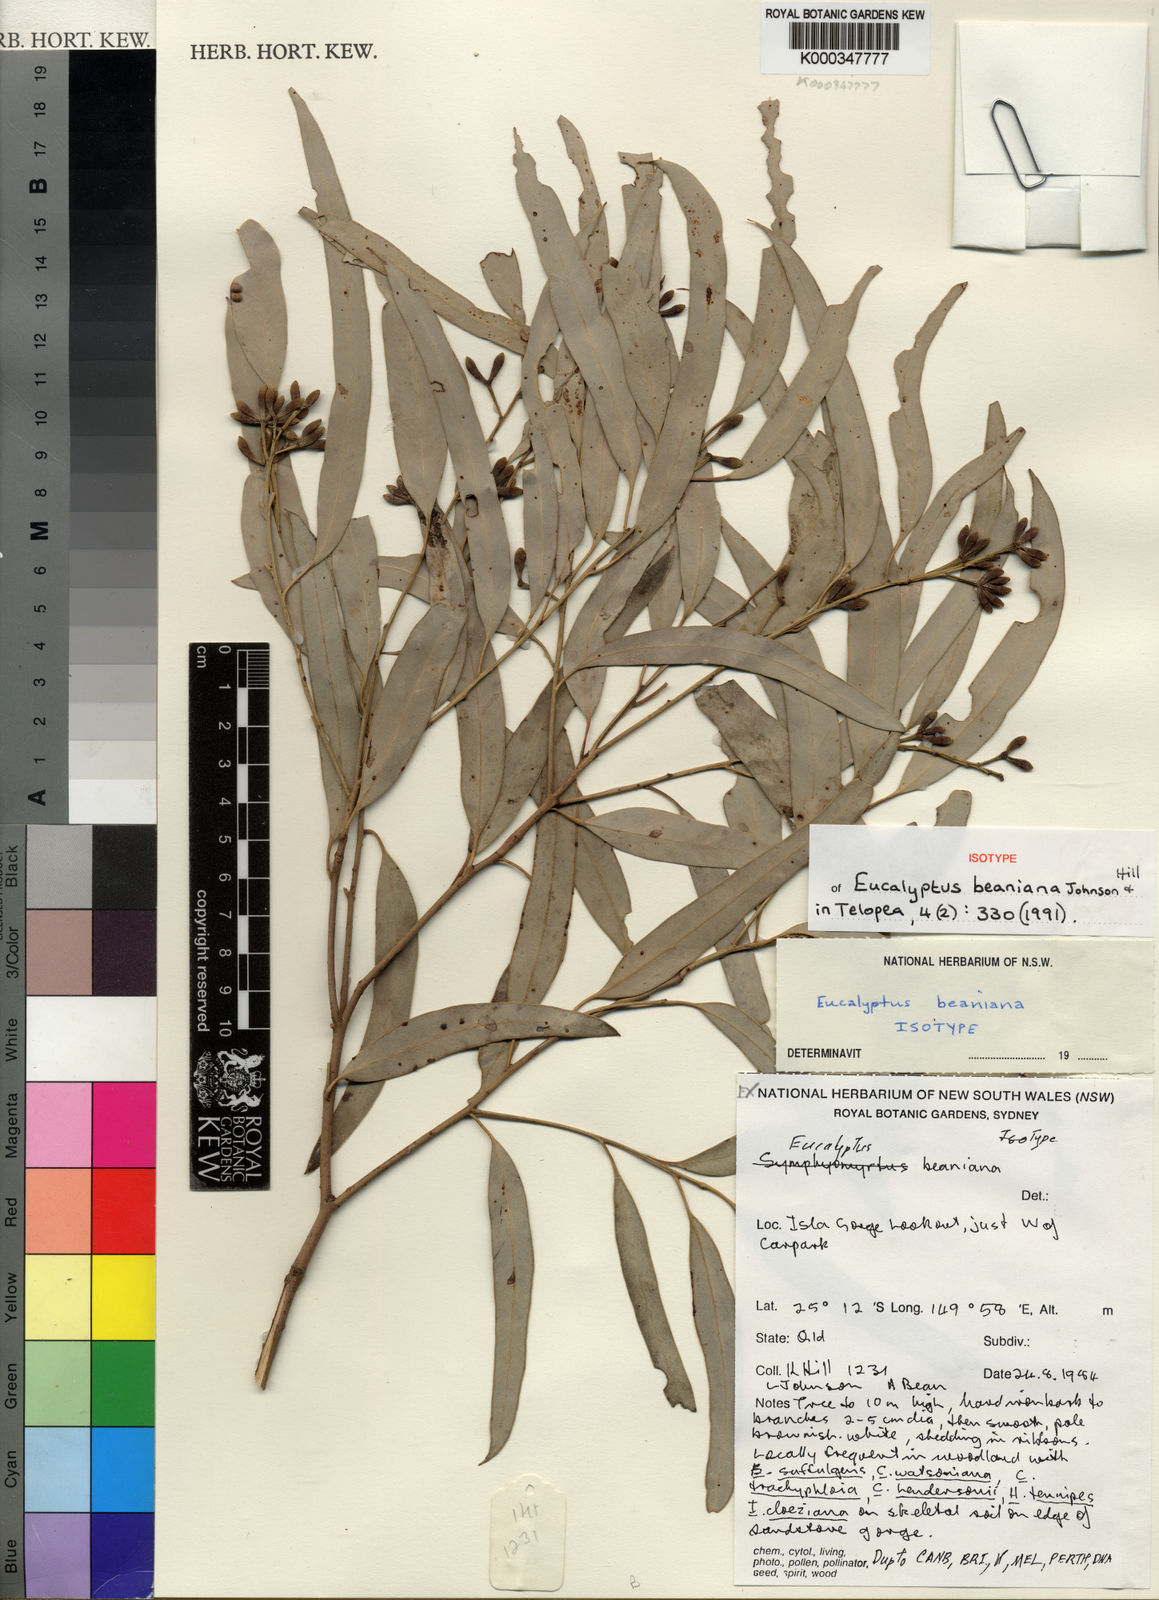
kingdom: Plantae
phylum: Tracheophyta
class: Magnoliopsida
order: Myrtales
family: Myrtaceae
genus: Eucalyptus
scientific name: Eucalyptus beaniana
